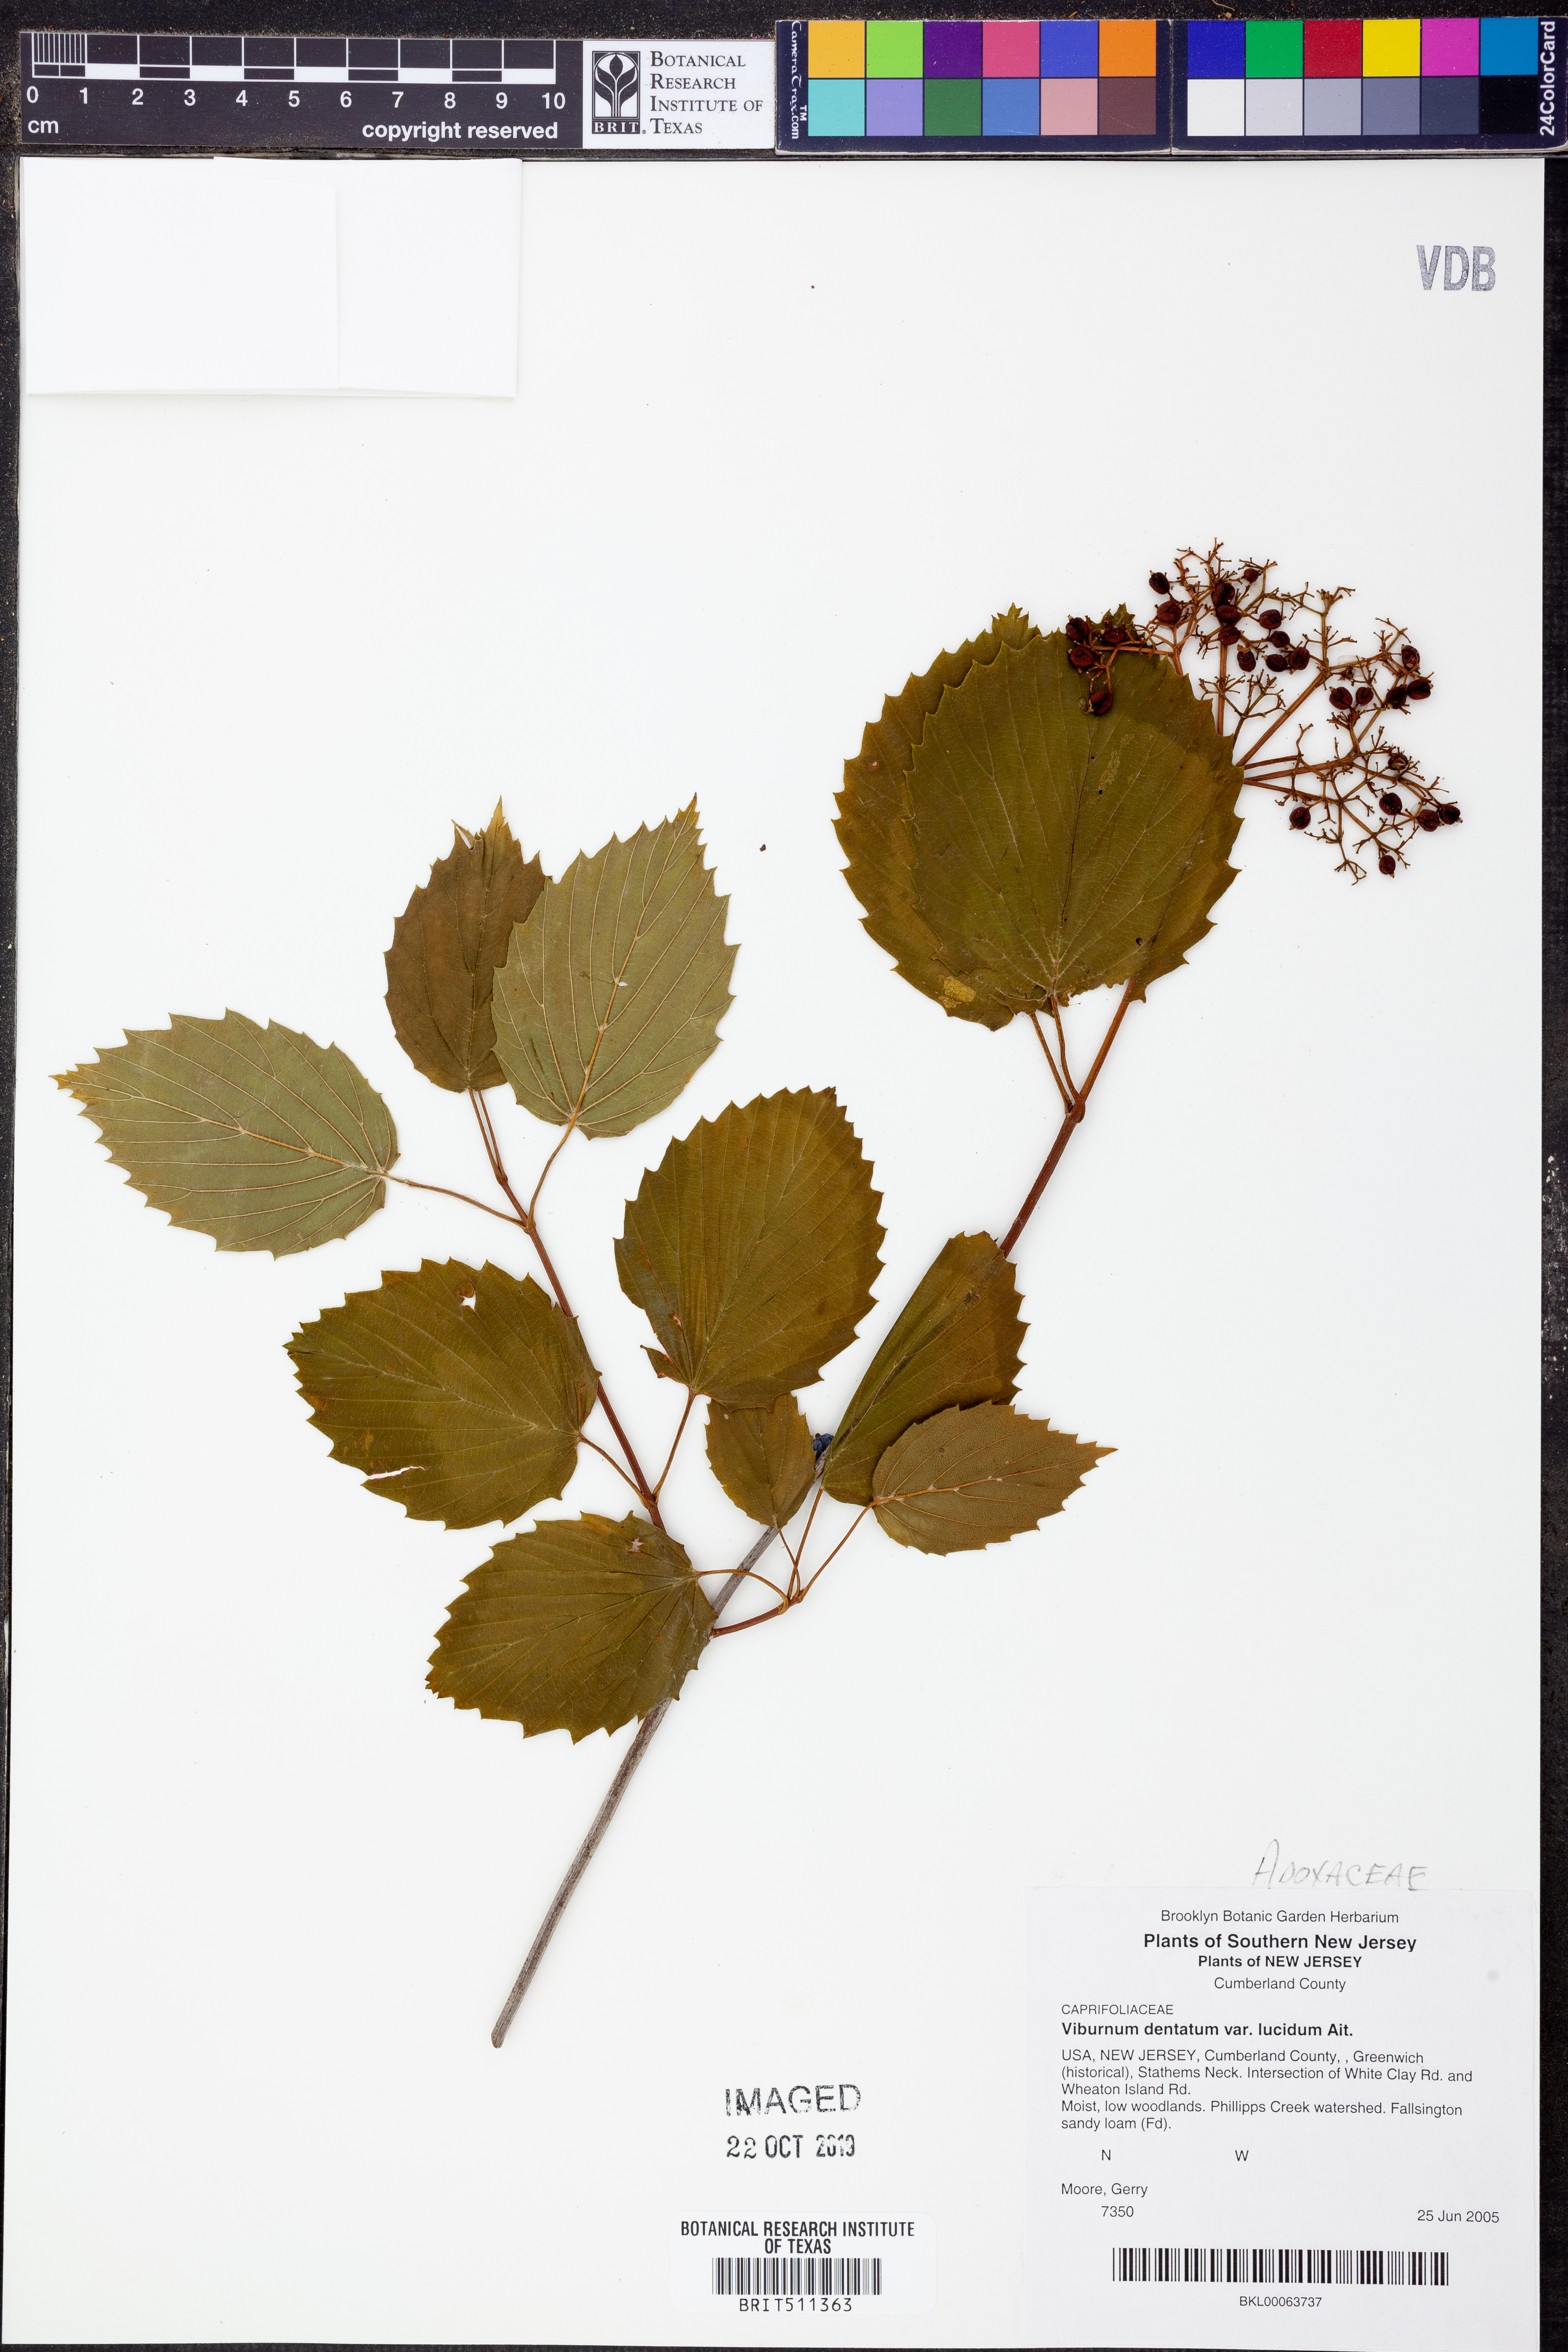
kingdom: Plantae
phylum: Tracheophyta
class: Magnoliopsida
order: Dipsacales
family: Viburnaceae
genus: Viburnum
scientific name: Viburnum recognitum
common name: Northern arrow-wood
